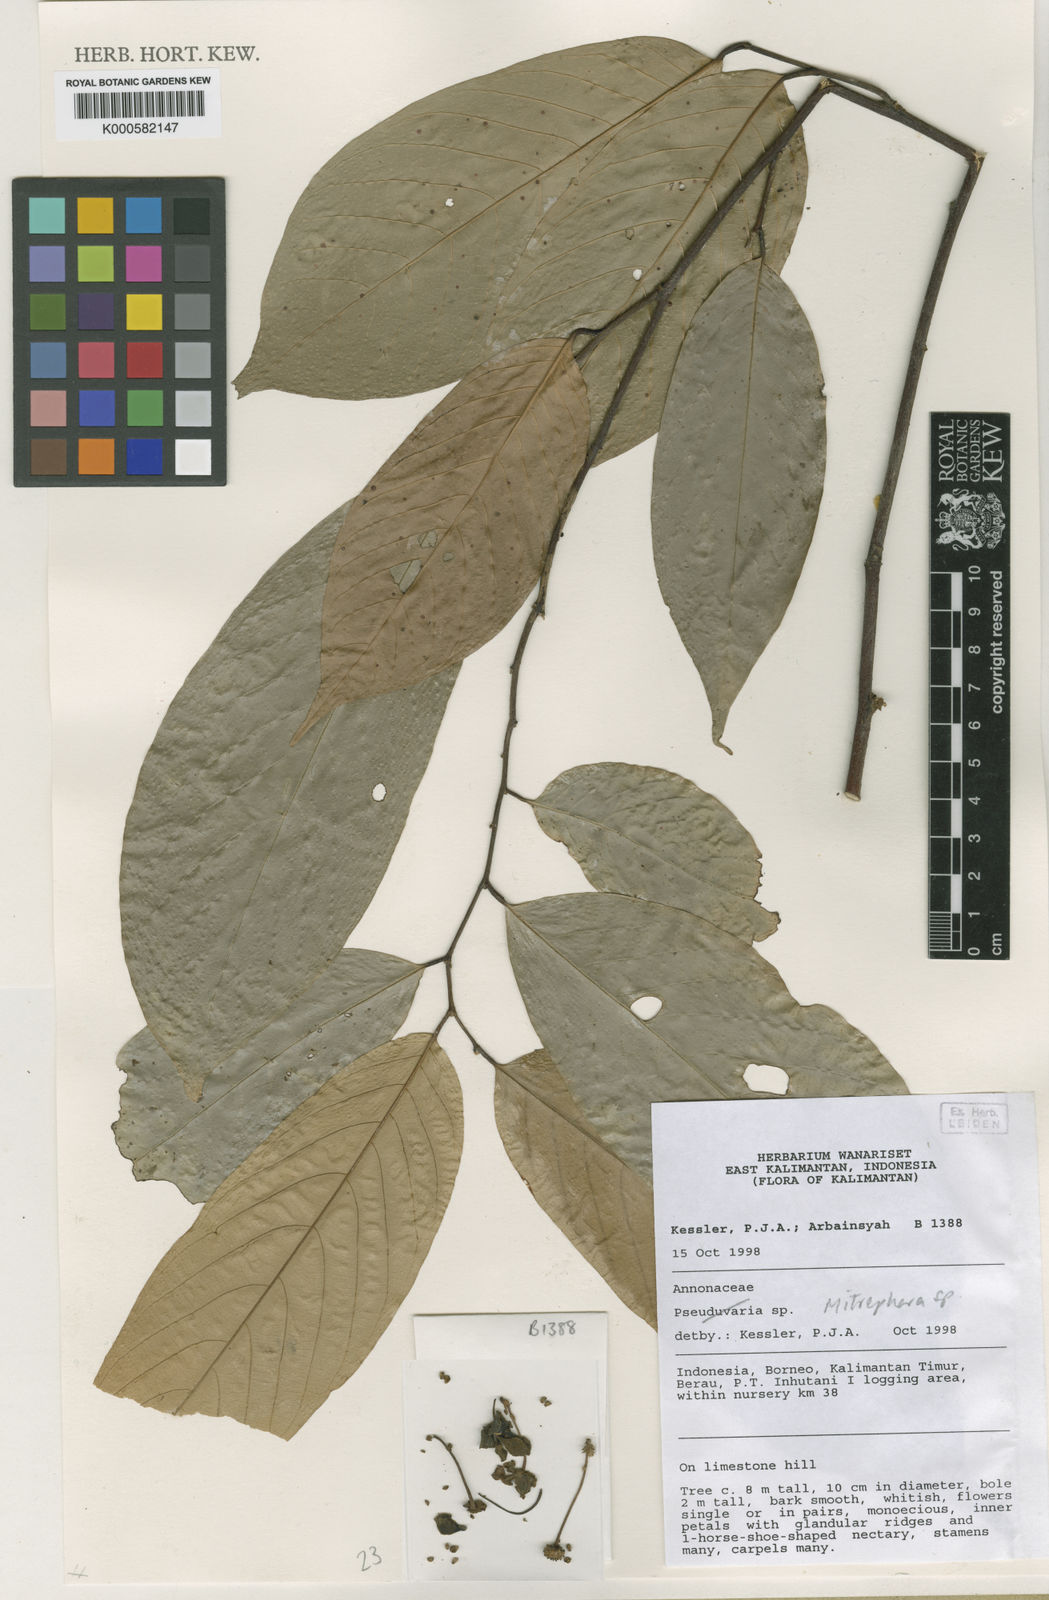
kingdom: Plantae
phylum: Tracheophyta
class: Magnoliopsida
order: Magnoliales
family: Annonaceae
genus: Mitrephora
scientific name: Mitrephora
